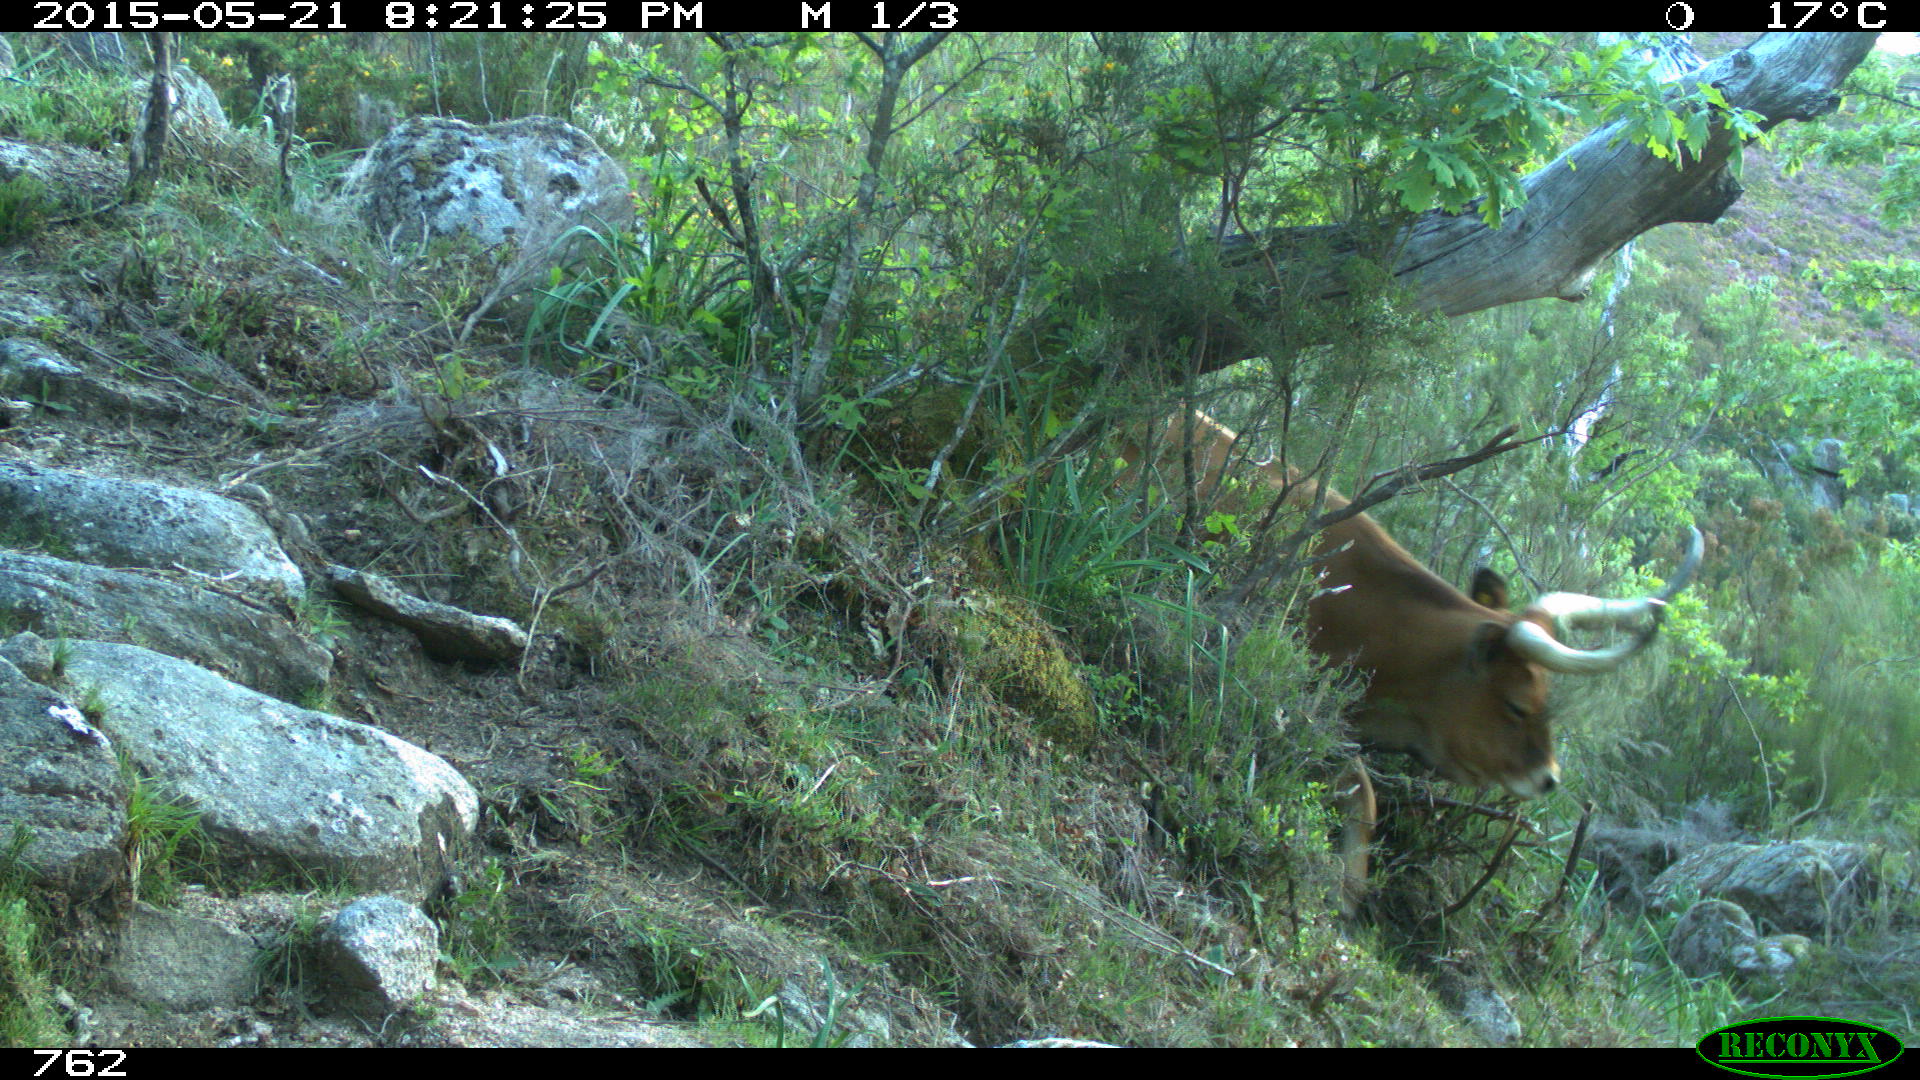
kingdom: Animalia
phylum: Chordata
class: Mammalia
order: Artiodactyla
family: Bovidae
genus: Bos
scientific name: Bos taurus
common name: Domesticated cattle
